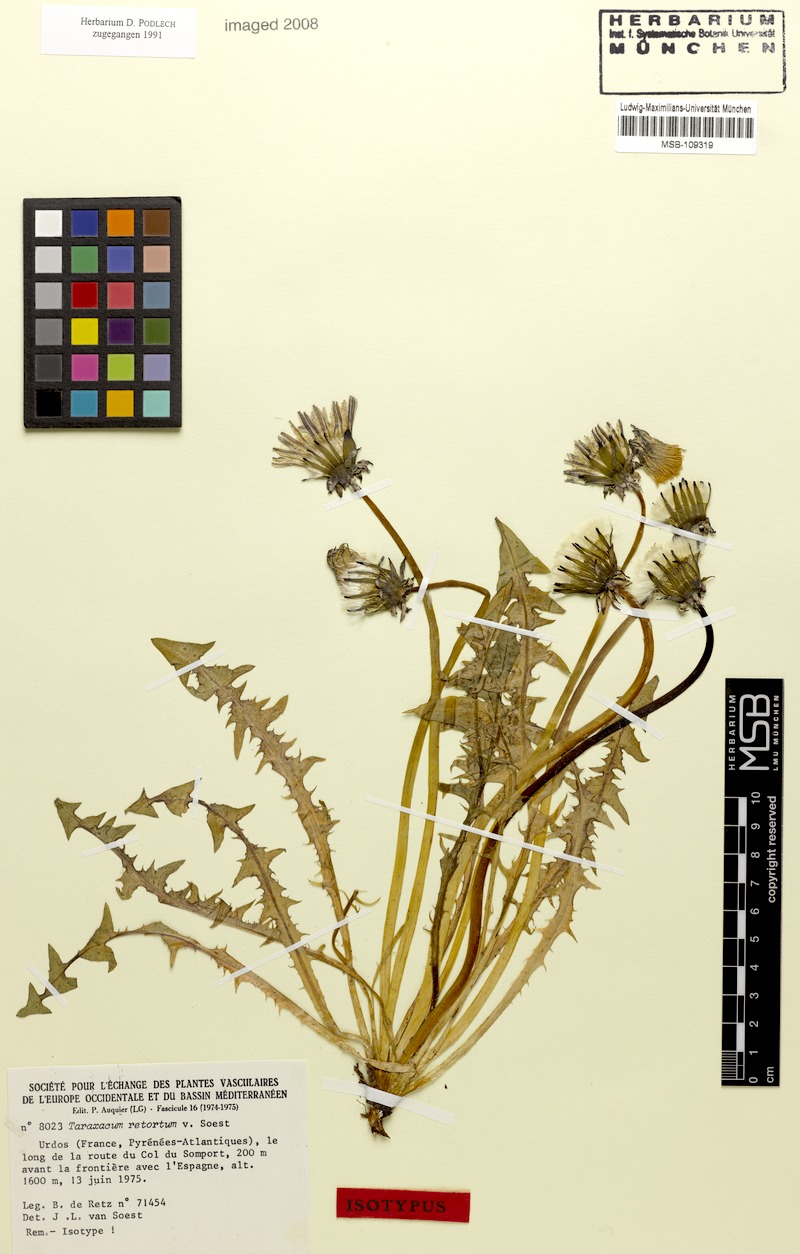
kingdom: Plantae
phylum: Tracheophyta
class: Magnoliopsida
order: Asterales
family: Asteraceae
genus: Taraxacum
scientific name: Taraxacum retortum
